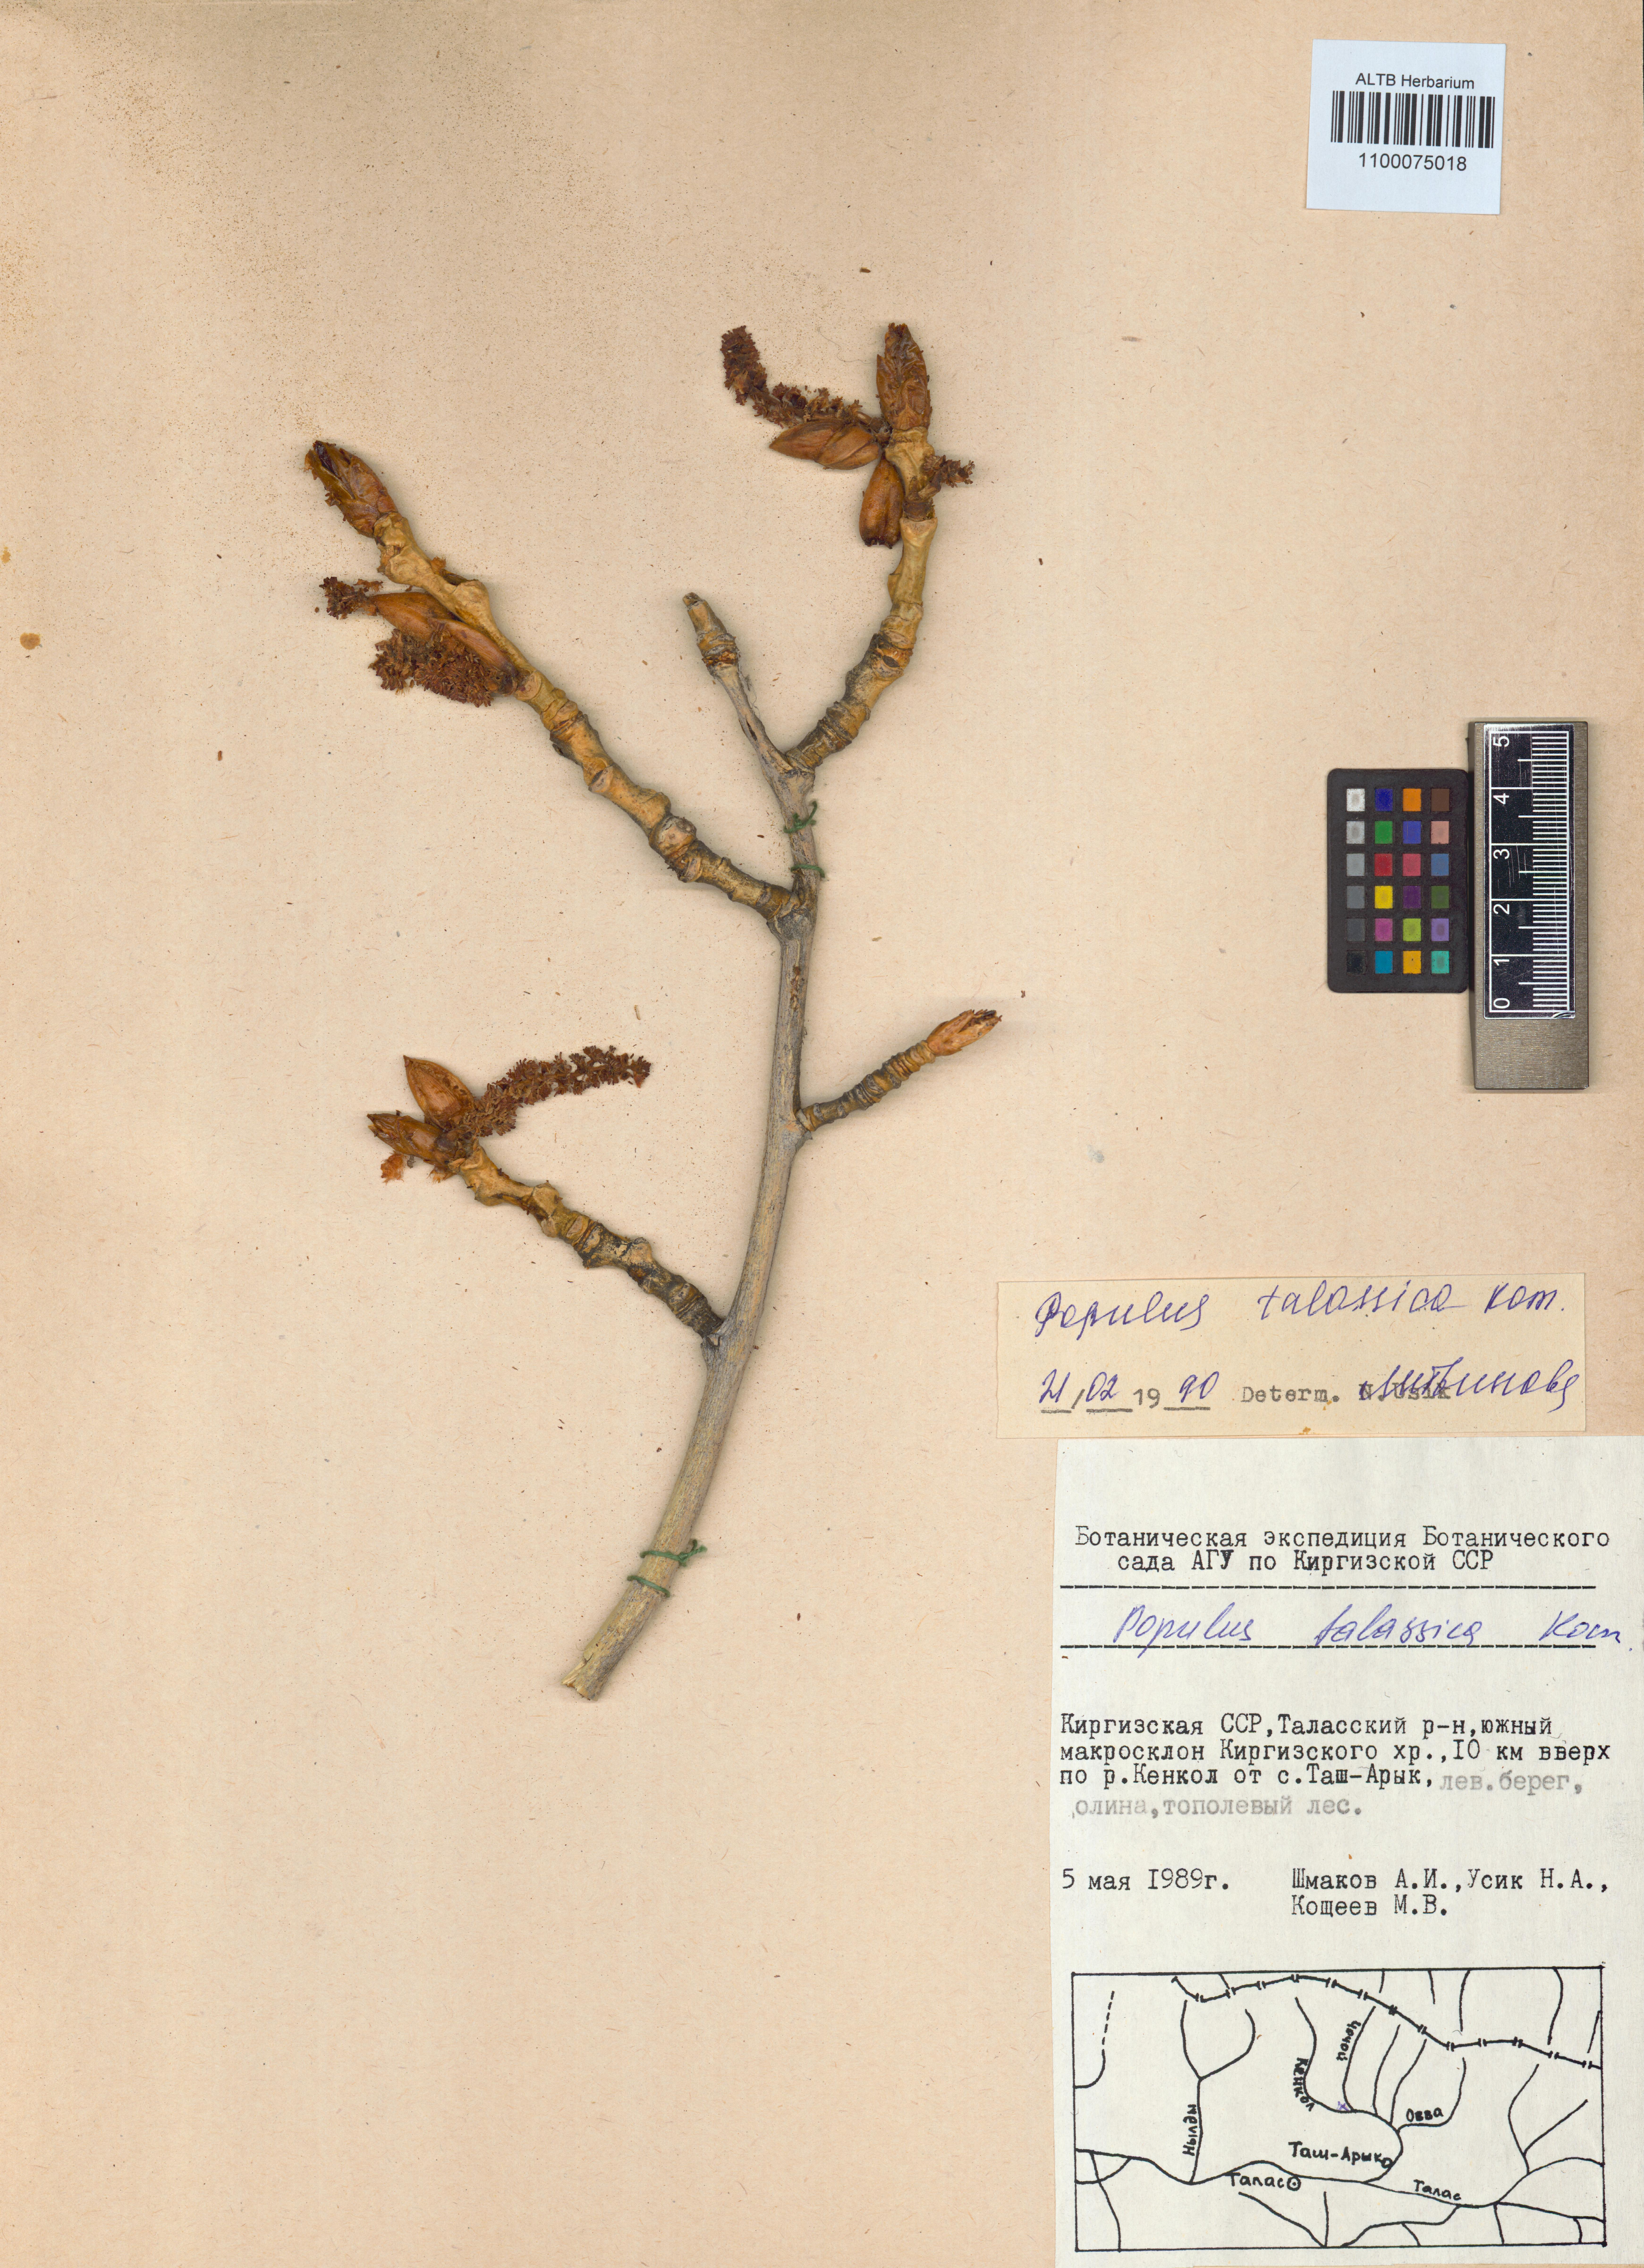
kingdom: Plantae
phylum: Tracheophyta
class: Magnoliopsida
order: Malpighiales
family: Salicaceae
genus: Populus
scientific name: Populus macrocarpa
